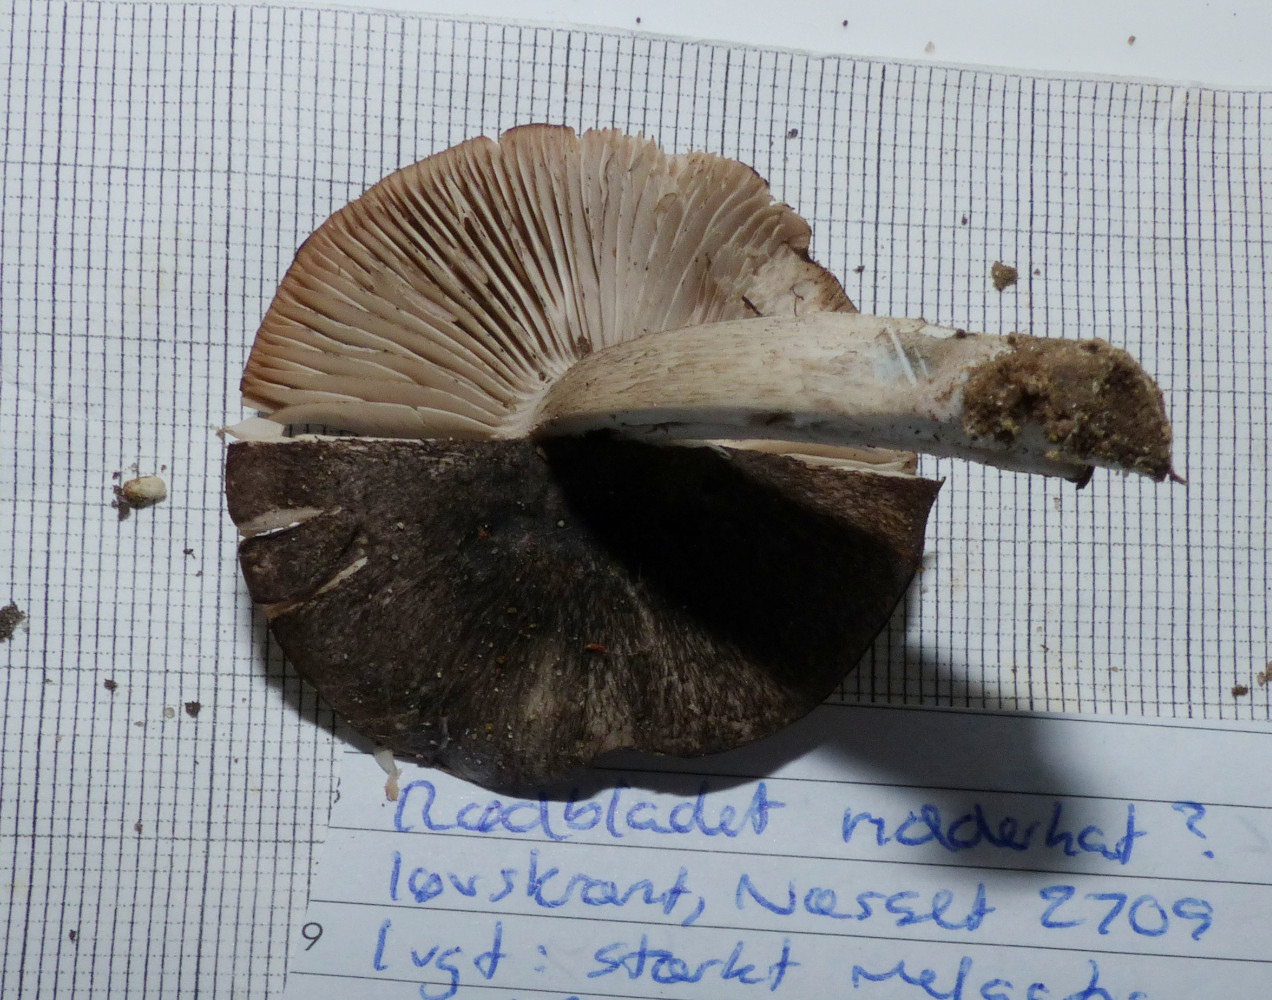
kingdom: Fungi
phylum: Basidiomycota
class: Agaricomycetes
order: Agaricales
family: Tricholomataceae
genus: Tricholoma
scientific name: Tricholoma orirubens
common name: rødbladet ridderhat
